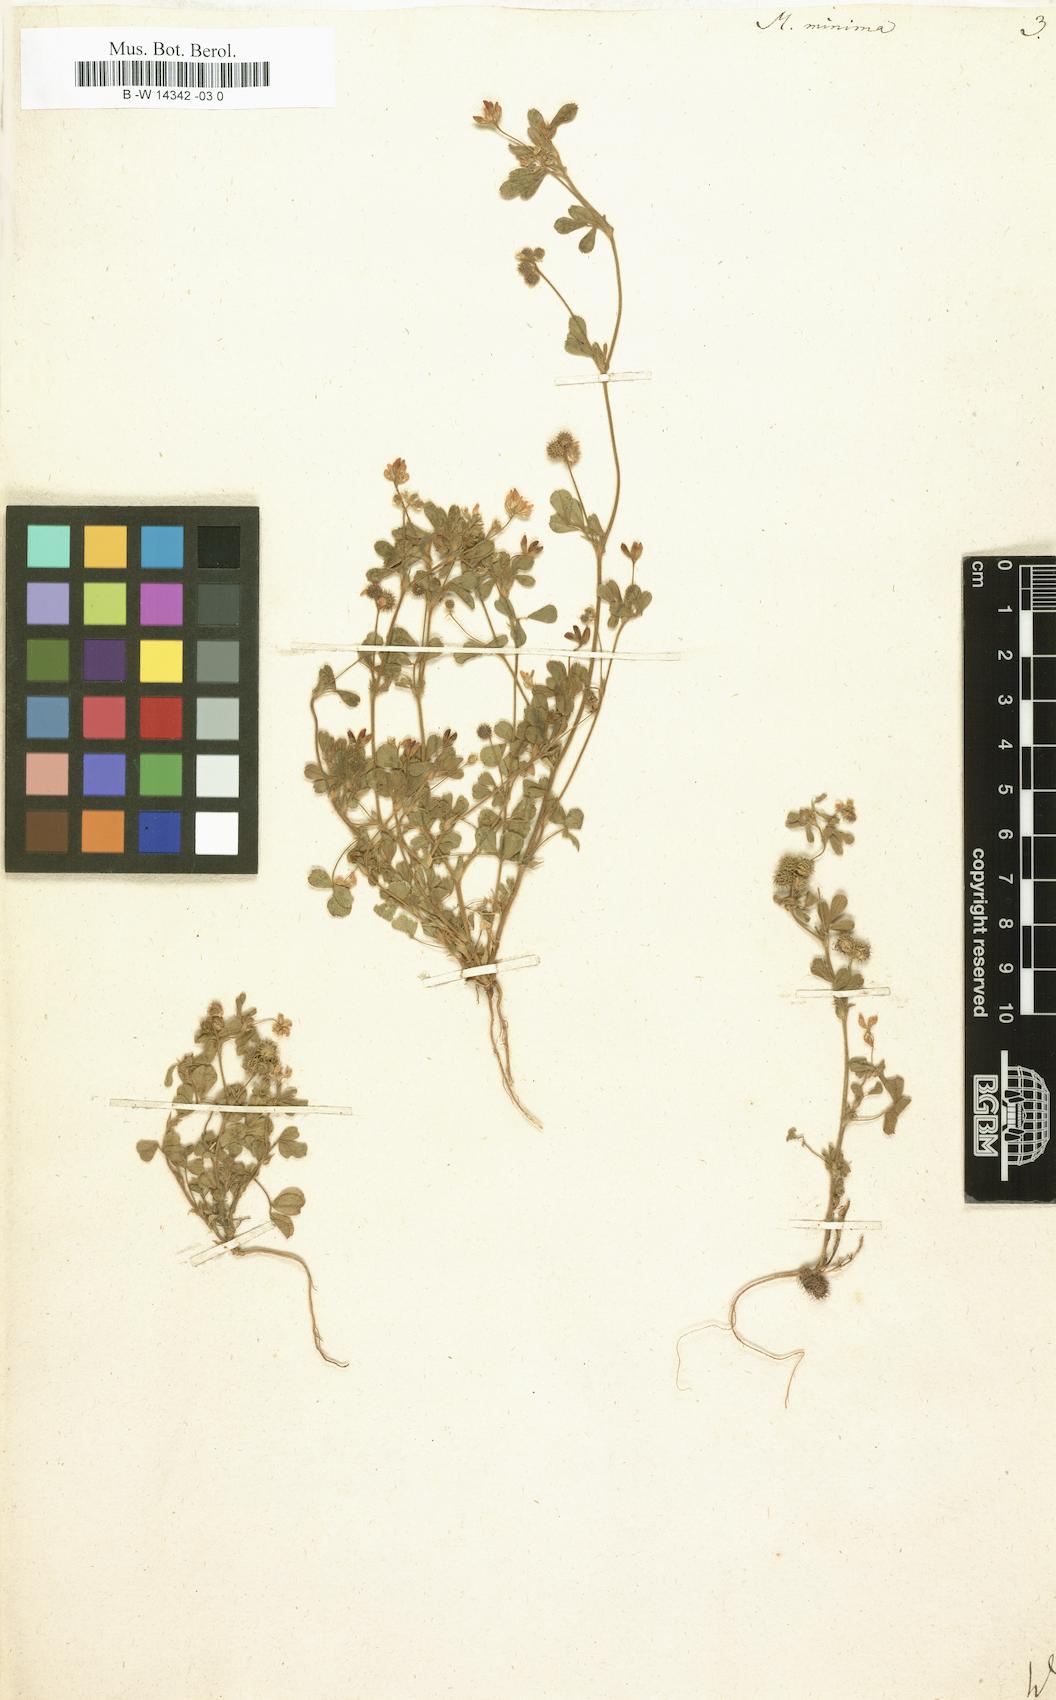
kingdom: Plantae
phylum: Tracheophyta
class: Magnoliopsida
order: Fabales
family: Fabaceae
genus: Medicago
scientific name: Medicago minima
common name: Little bur-clover
